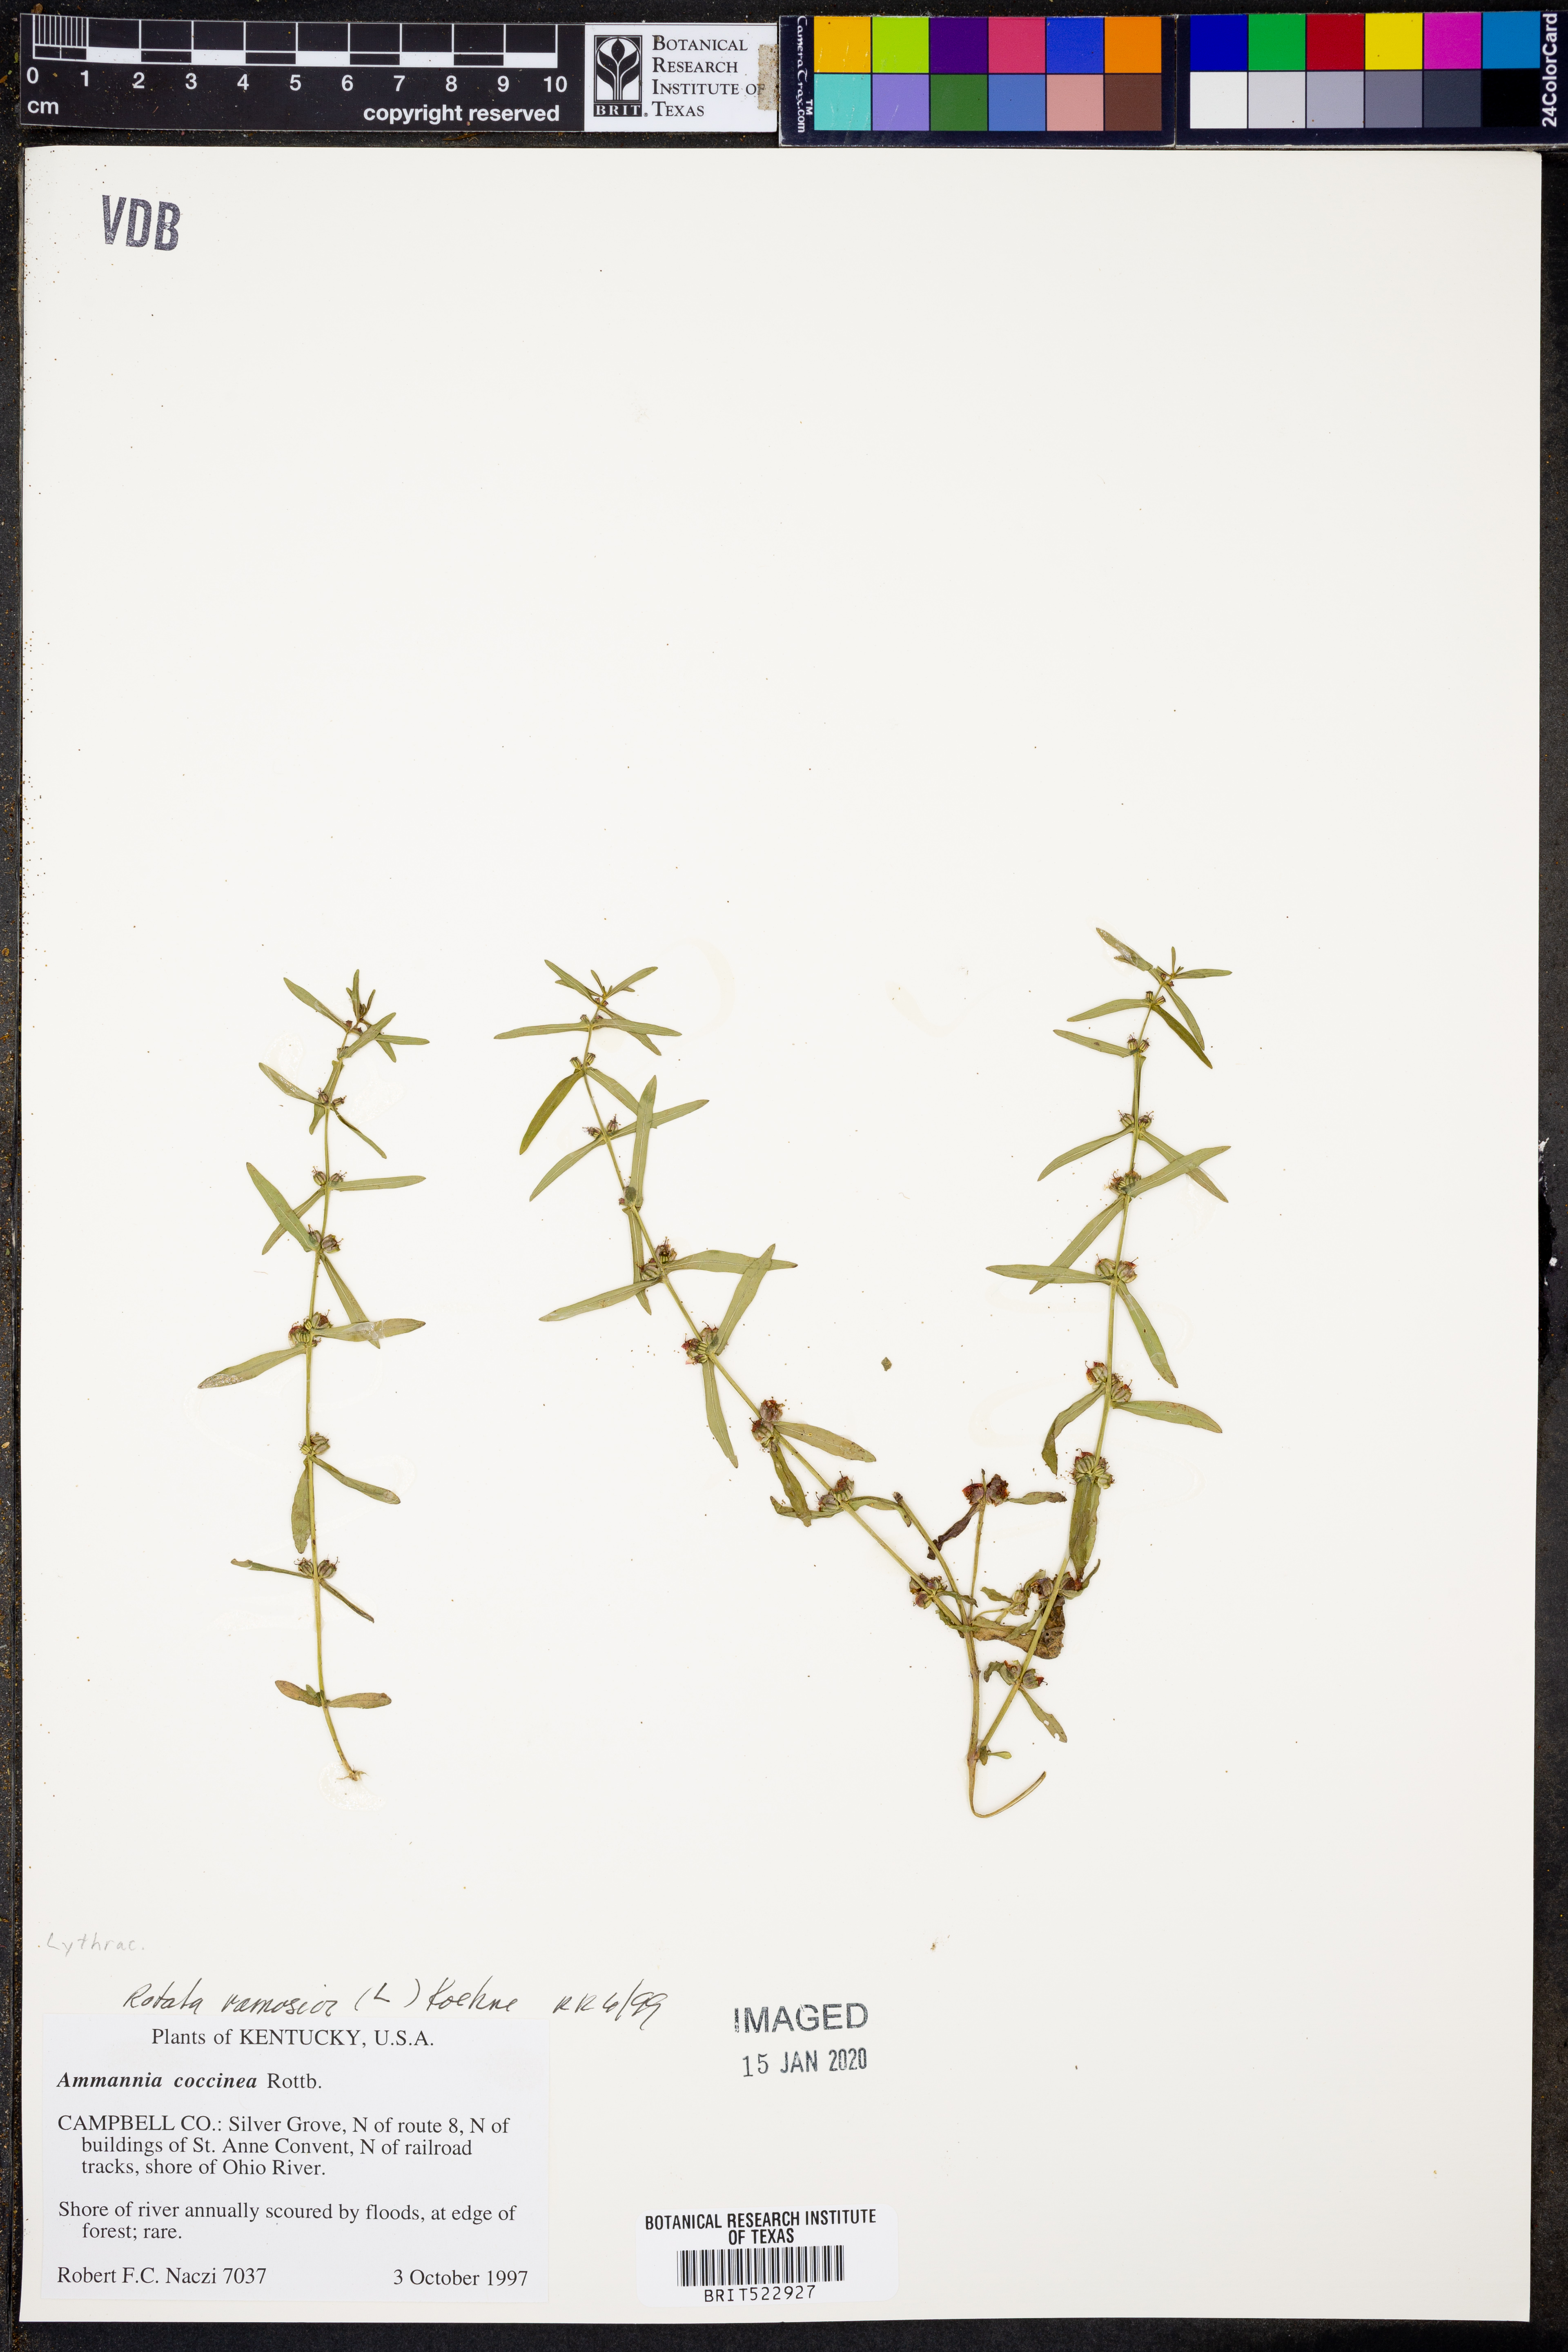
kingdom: Plantae
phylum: Tracheophyta
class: Magnoliopsida
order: Myrtales
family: Lythraceae
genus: Rotala
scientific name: Rotala ramosior
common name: Lowland rotala
